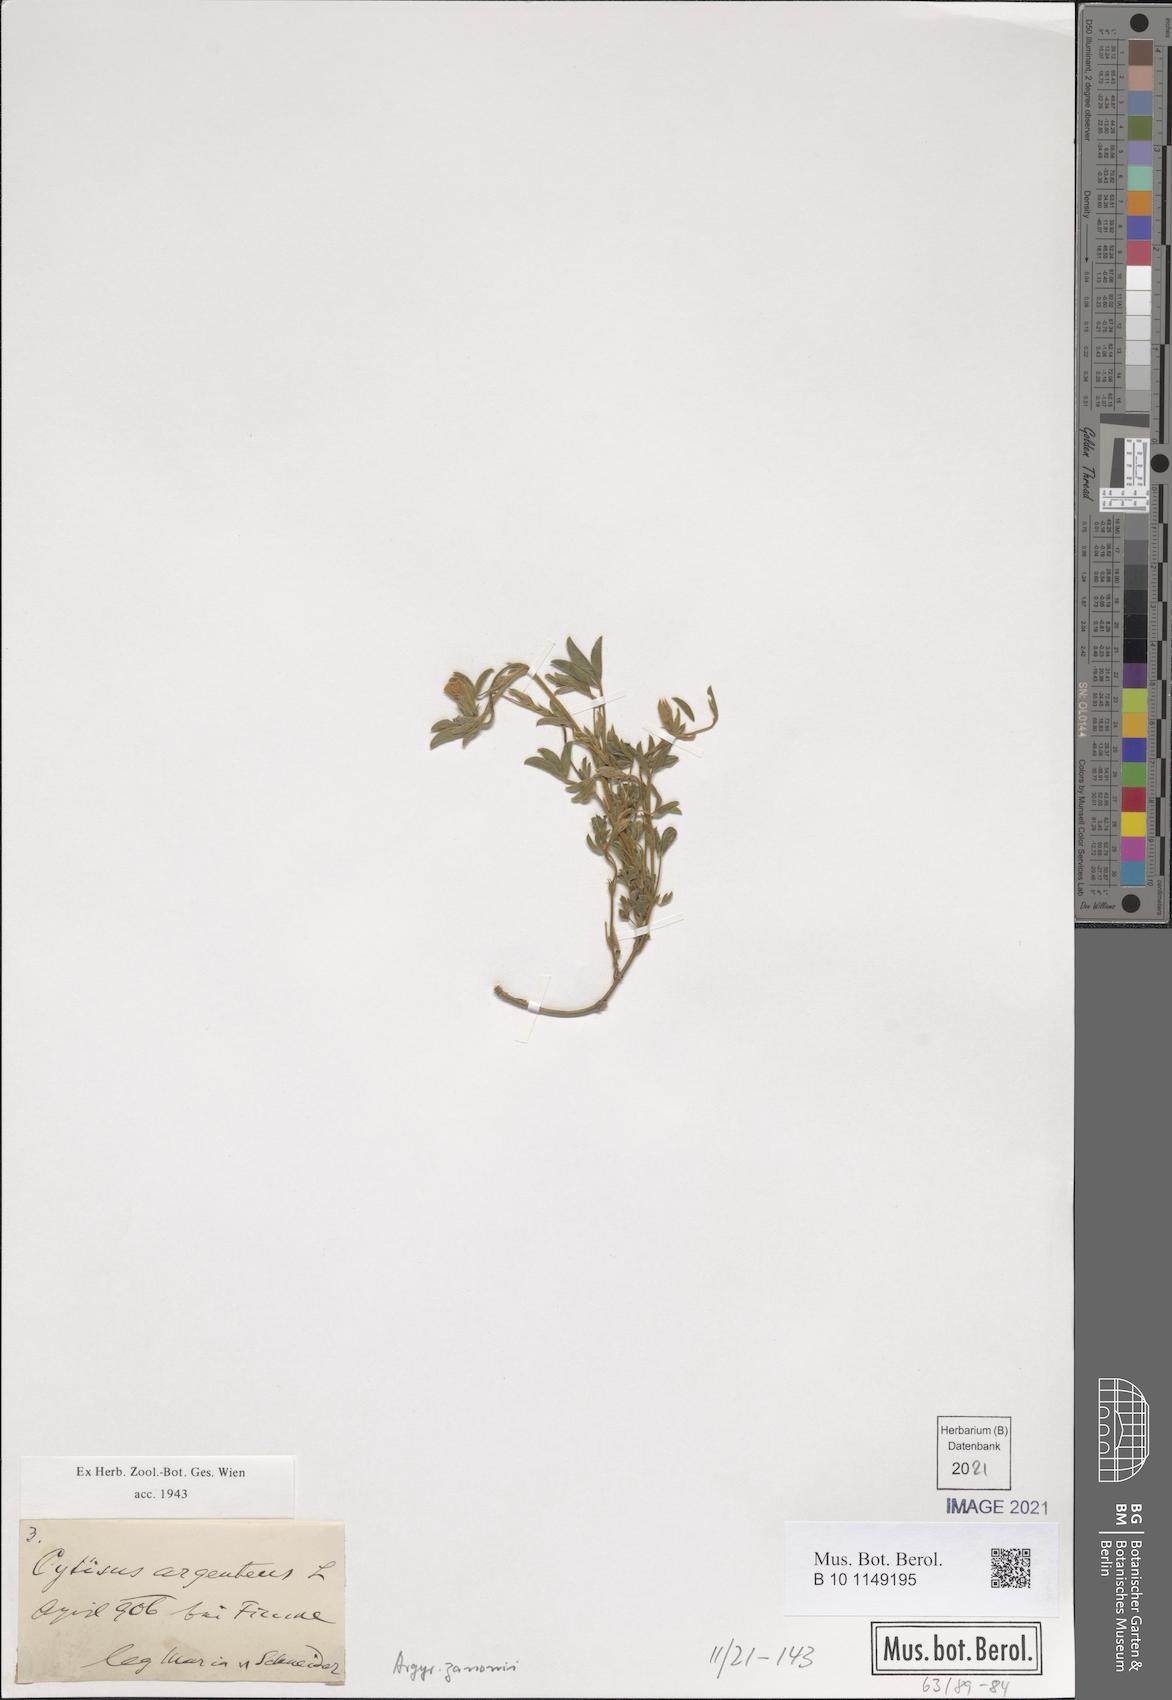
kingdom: Plantae
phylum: Tracheophyta
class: Magnoliopsida
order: Fabales
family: Fabaceae
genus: Argyrolobium
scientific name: Argyrolobium zanonii
